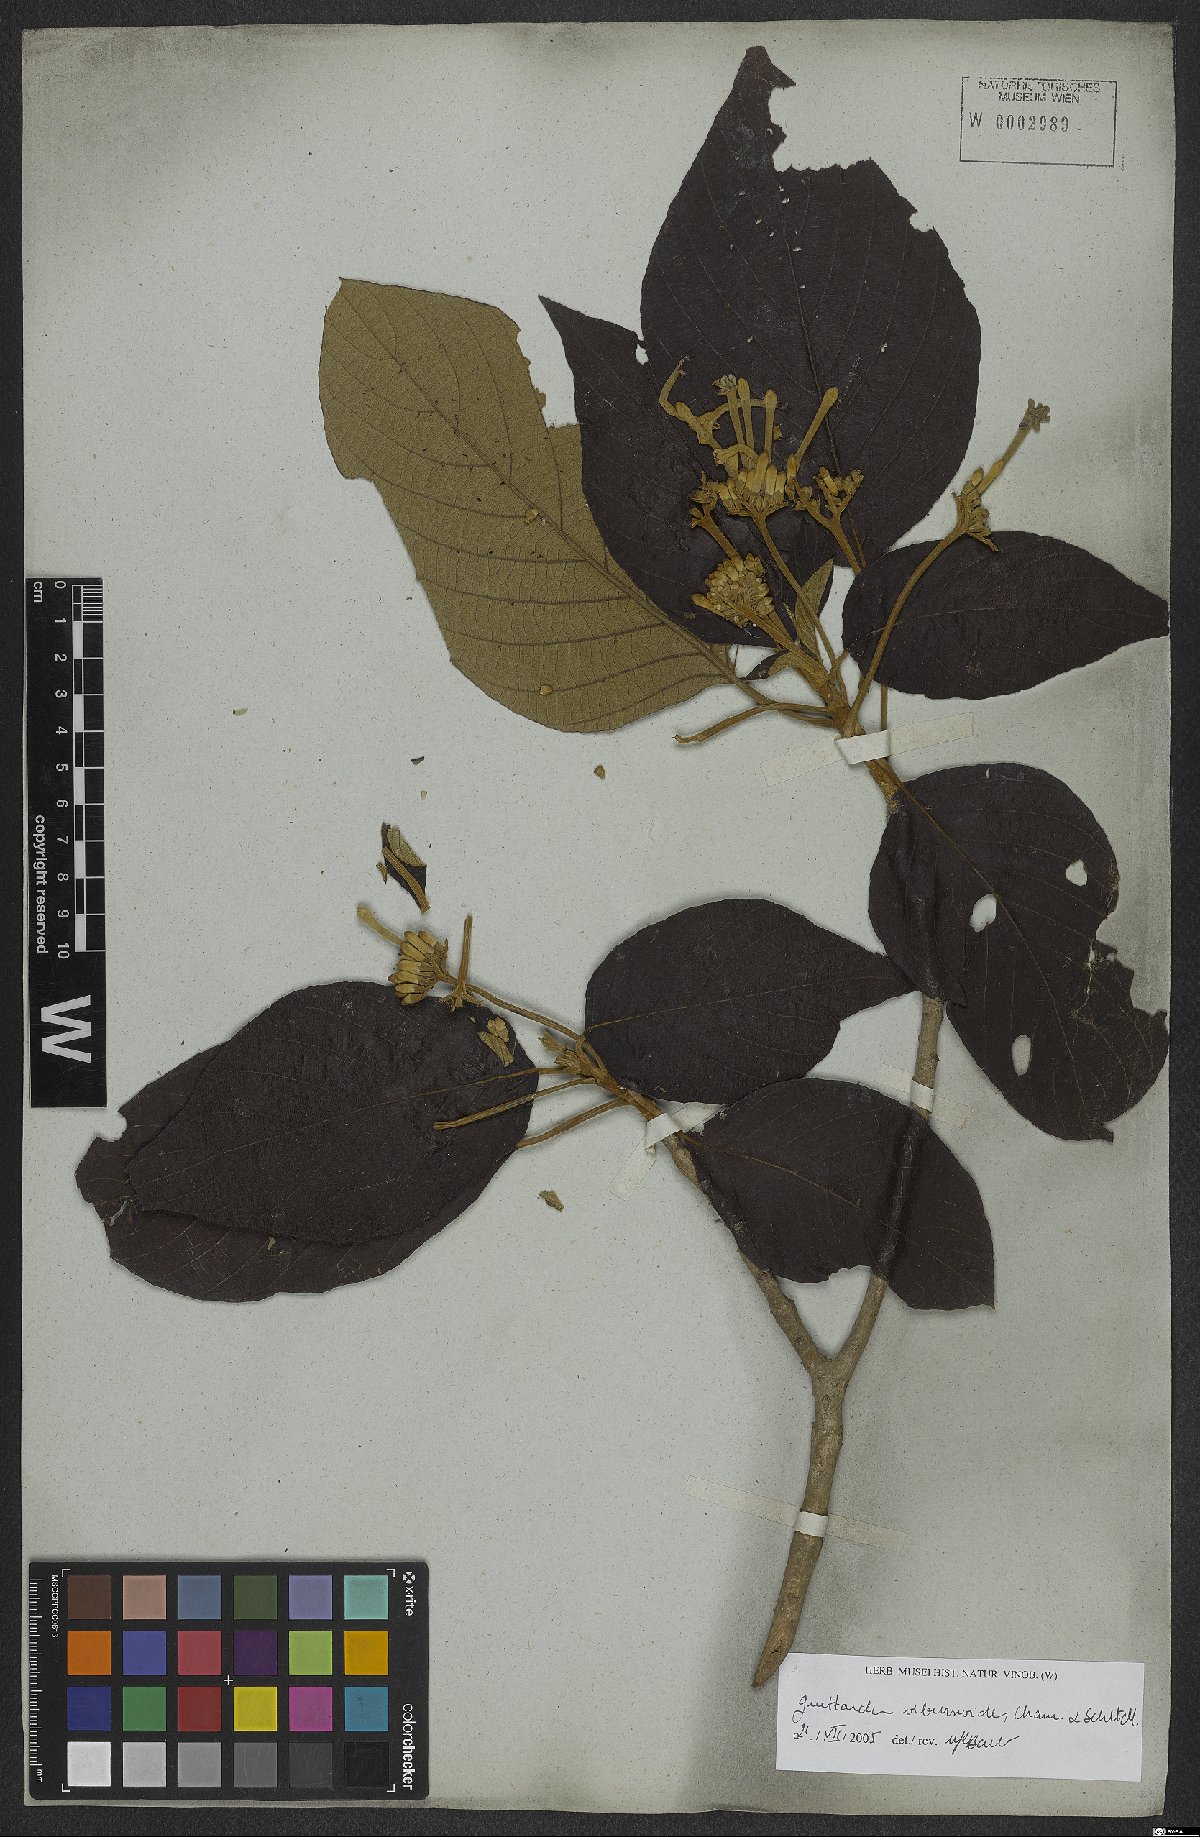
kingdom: Plantae
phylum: Tracheophyta
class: Magnoliopsida
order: Gentianales
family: Rubiaceae
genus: Guettarda
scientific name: Guettarda viburnoides
